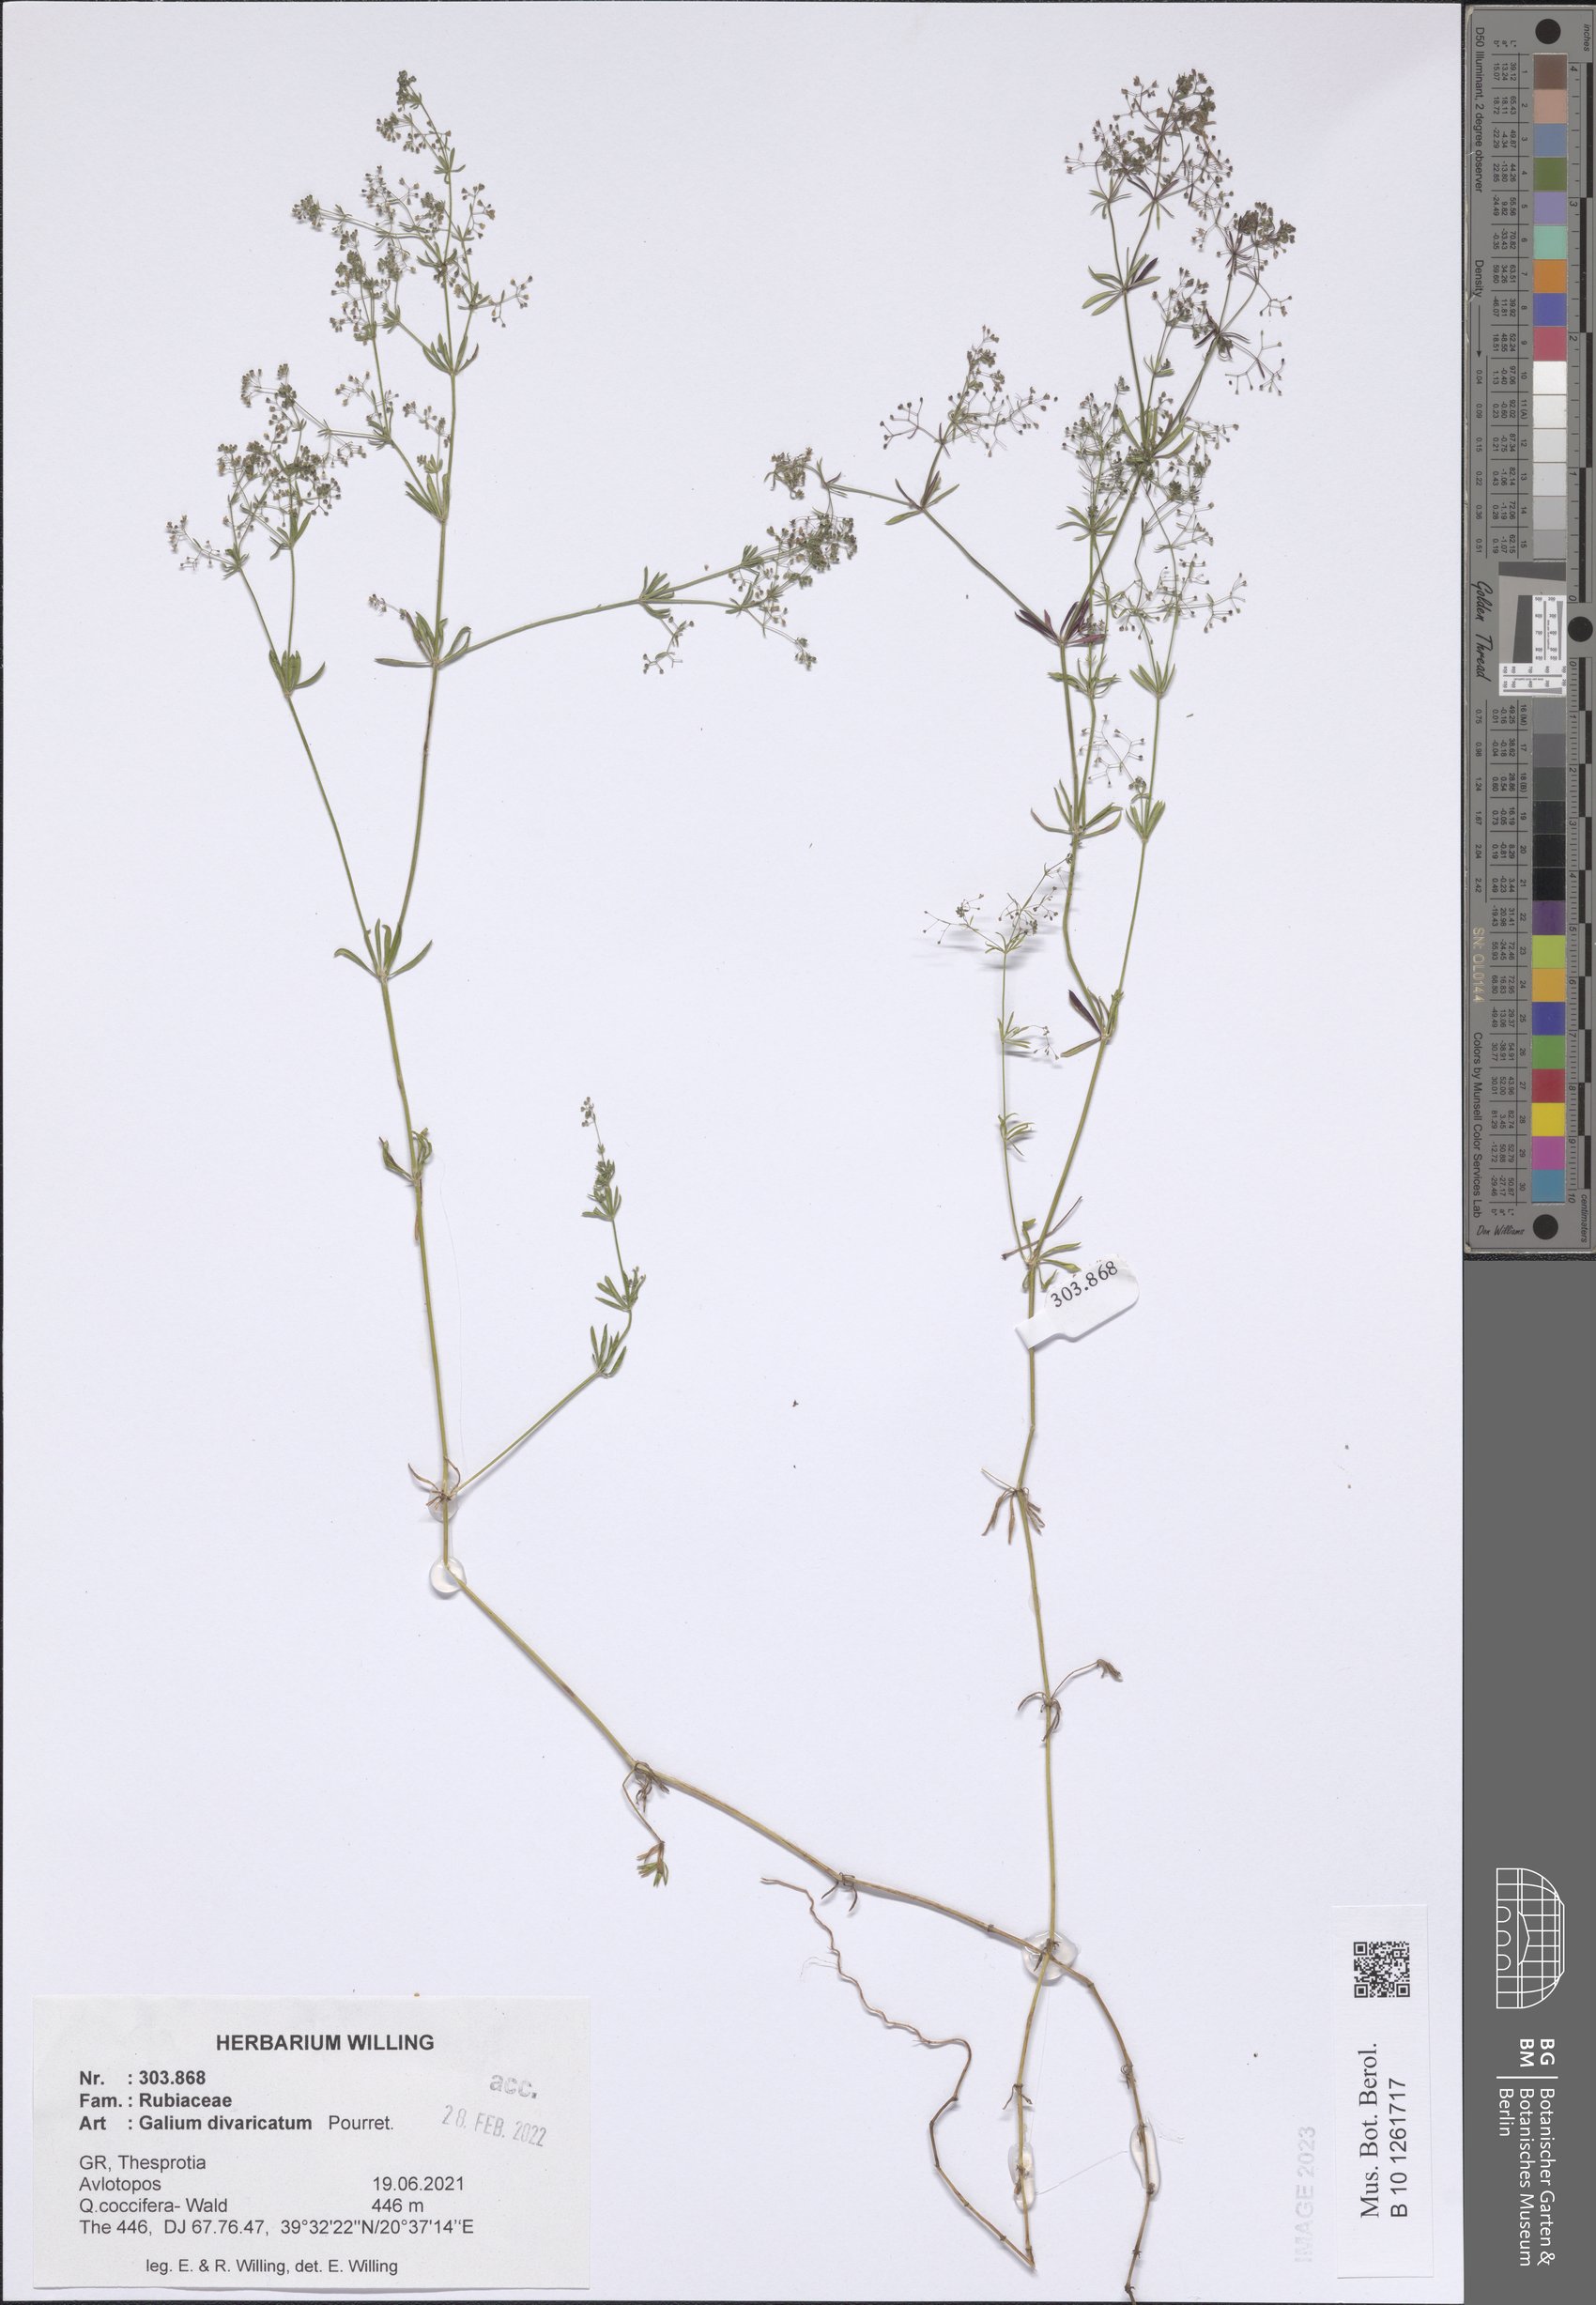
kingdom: Plantae
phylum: Tracheophyta
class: Magnoliopsida
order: Gentianales
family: Rubiaceae
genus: Galium
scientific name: Galium divaricatum
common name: Lamarck's bedstraw
